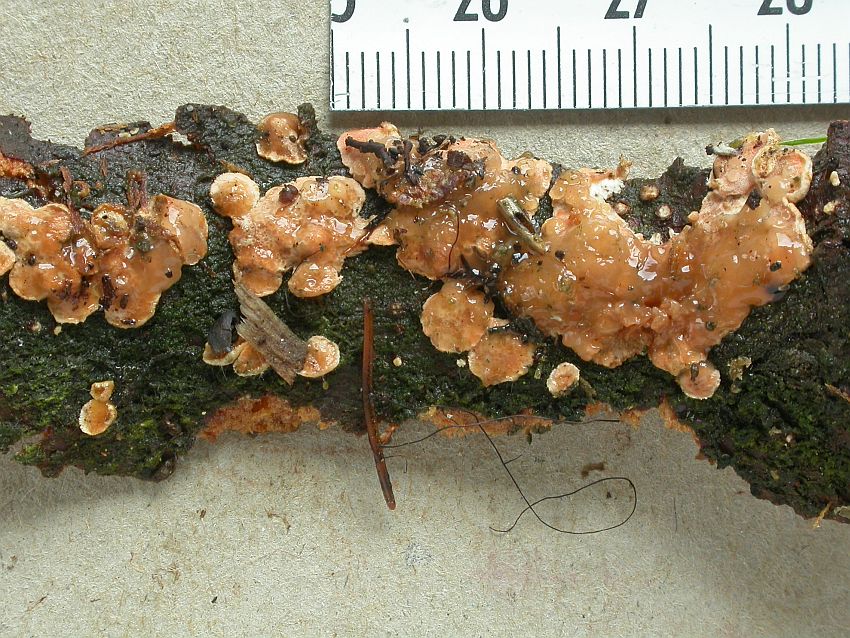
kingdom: Fungi
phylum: Basidiomycota
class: Agaricomycetes
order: Russulales
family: Stereaceae
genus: Aleurodiscus
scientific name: Aleurodiscus amorphus
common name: orange skiveskorpe
